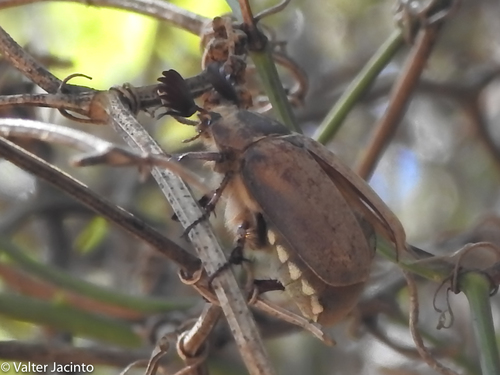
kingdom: Animalia
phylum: Arthropoda
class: Insecta
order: Coleoptera
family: Scarabaeidae
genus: Melolontha
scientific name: Melolontha papposa
